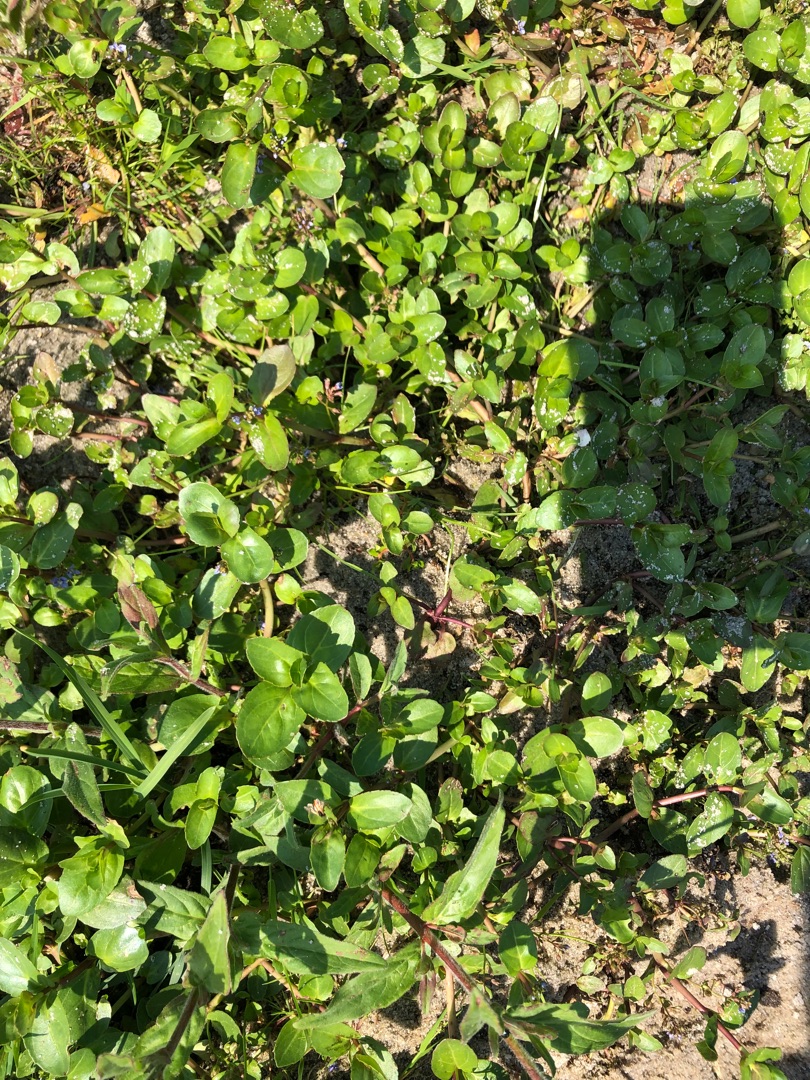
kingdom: Plantae
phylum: Tracheophyta
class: Magnoliopsida
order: Lamiales
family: Plantaginaceae
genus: Veronica
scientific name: Veronica beccabunga
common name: Tykbladet ærenpris
